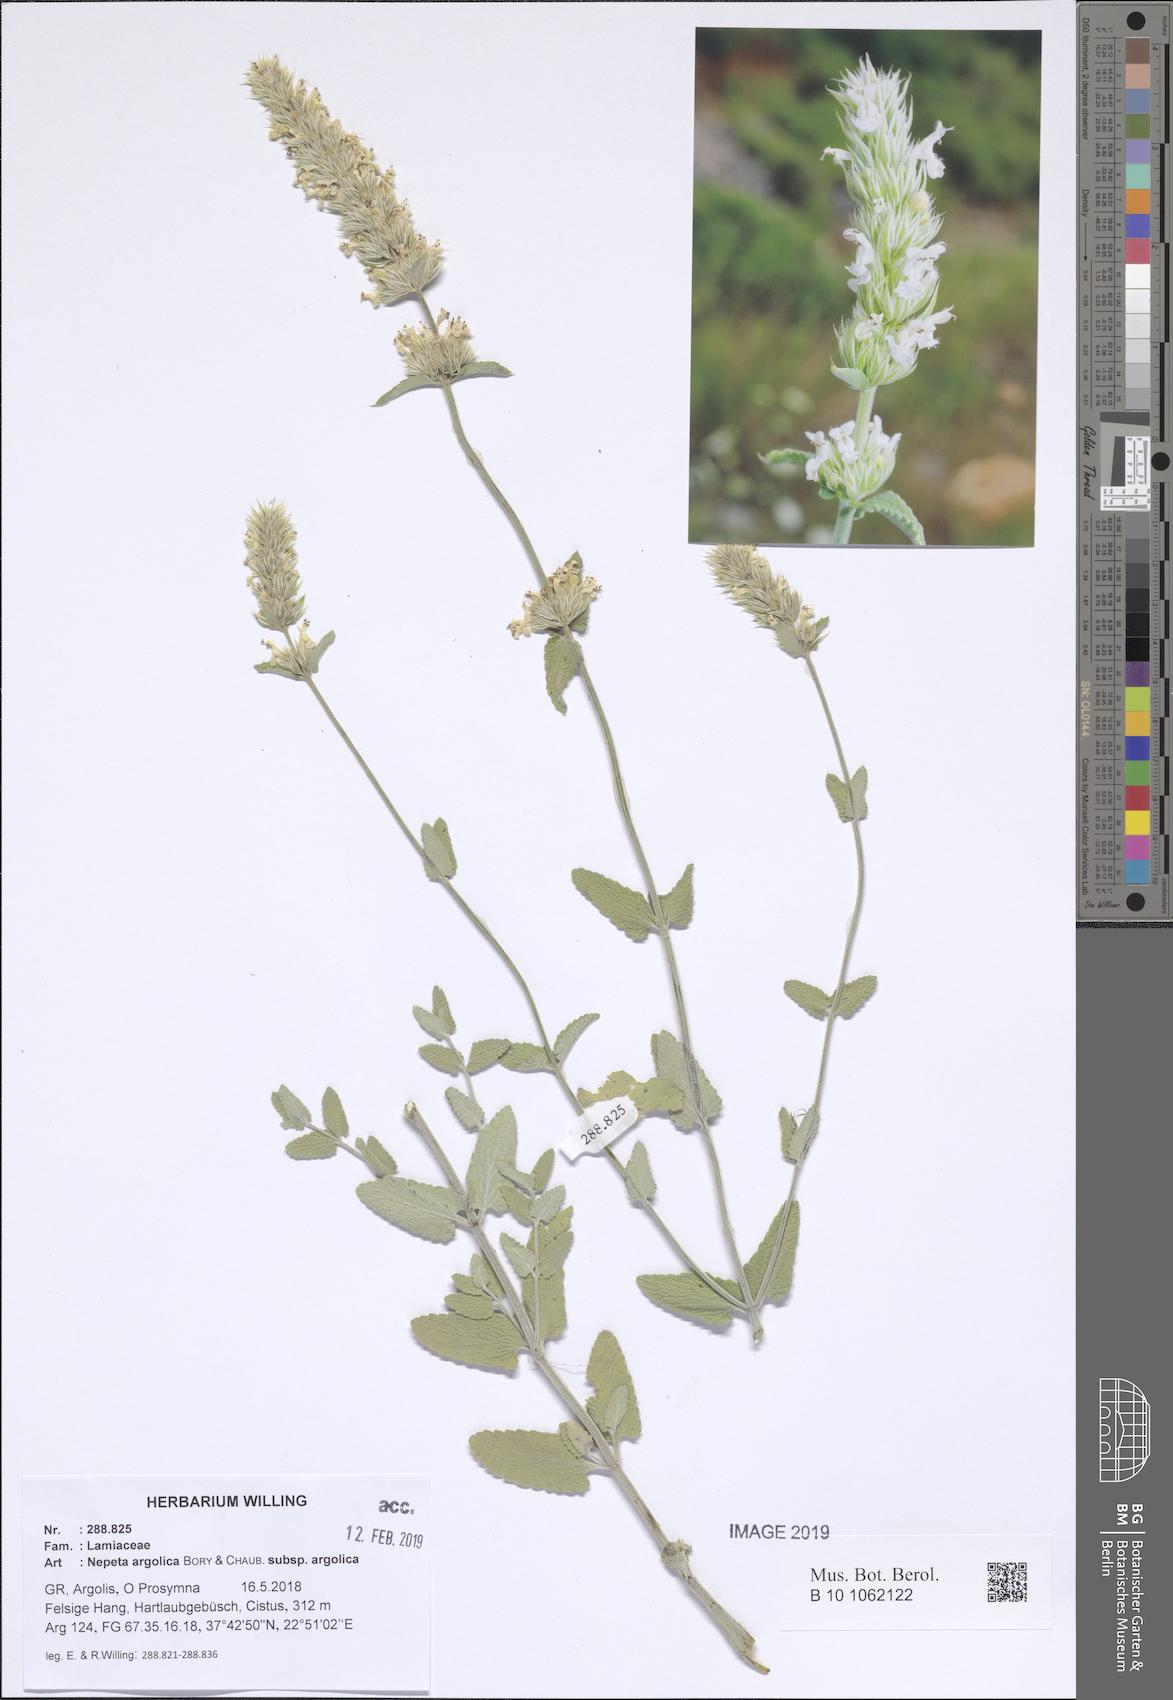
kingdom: Plantae
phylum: Tracheophyta
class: Magnoliopsida
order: Lamiales
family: Lamiaceae
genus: Nepeta
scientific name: Nepeta argolica
